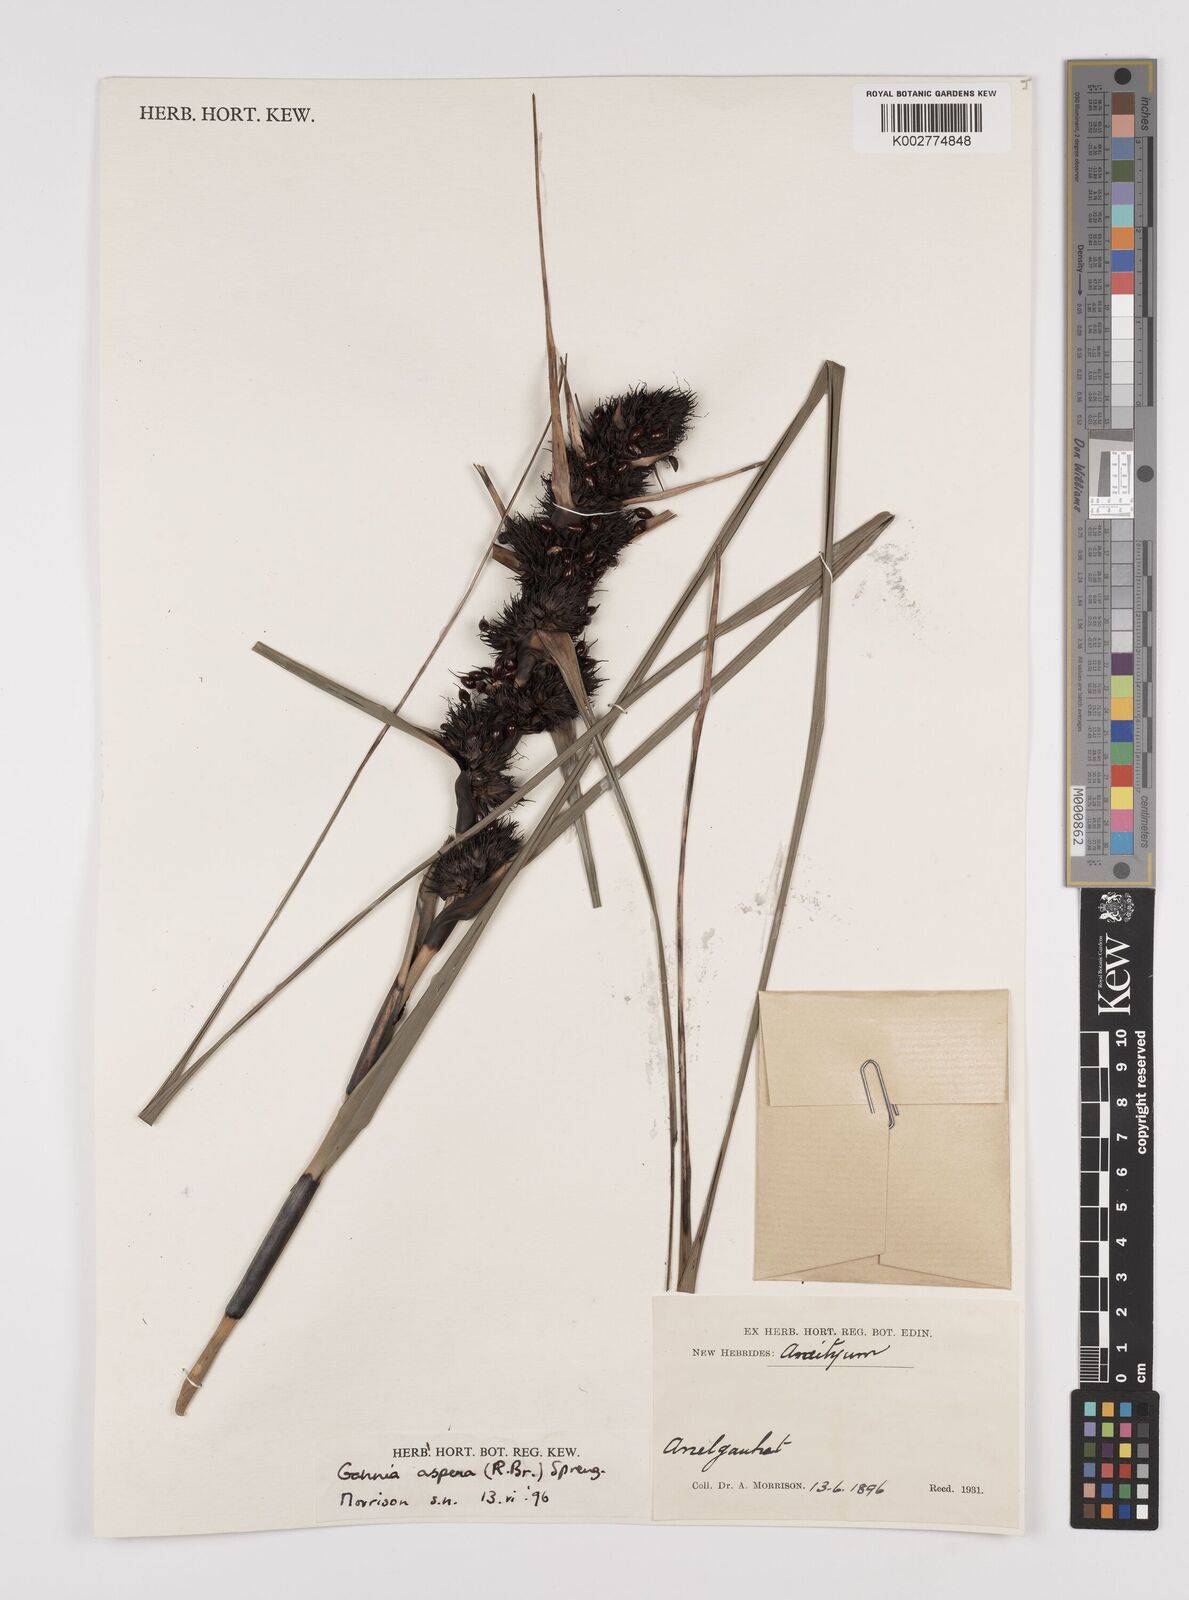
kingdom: Plantae
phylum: Tracheophyta
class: Liliopsida
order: Poales
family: Cyperaceae
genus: Gahnia
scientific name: Gahnia aspera
